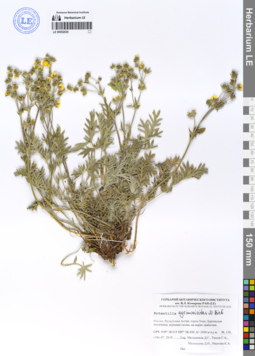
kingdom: Plantae
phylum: Tracheophyta
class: Magnoliopsida
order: Rosales
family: Rosaceae
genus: Potentilla
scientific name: Potentilla agrimonioides
